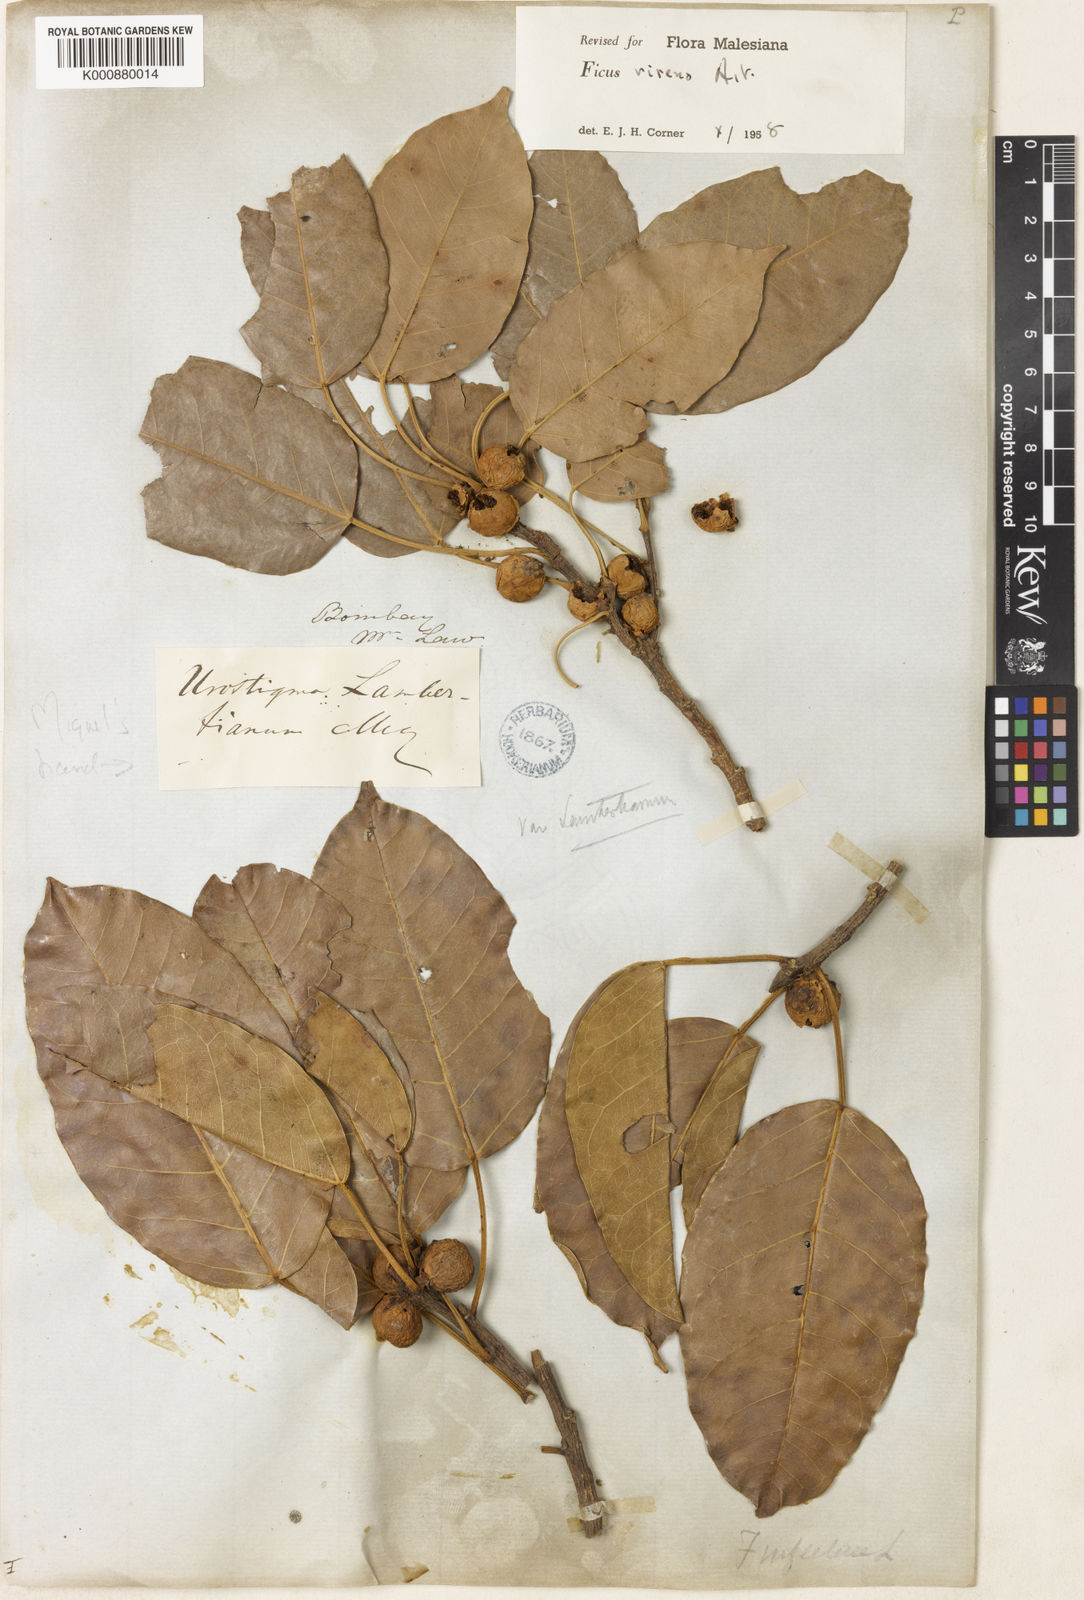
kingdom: Plantae
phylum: Tracheophyta
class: Magnoliopsida
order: Rosales
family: Moraceae
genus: Ficus
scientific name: Ficus virens
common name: Spotted fig
